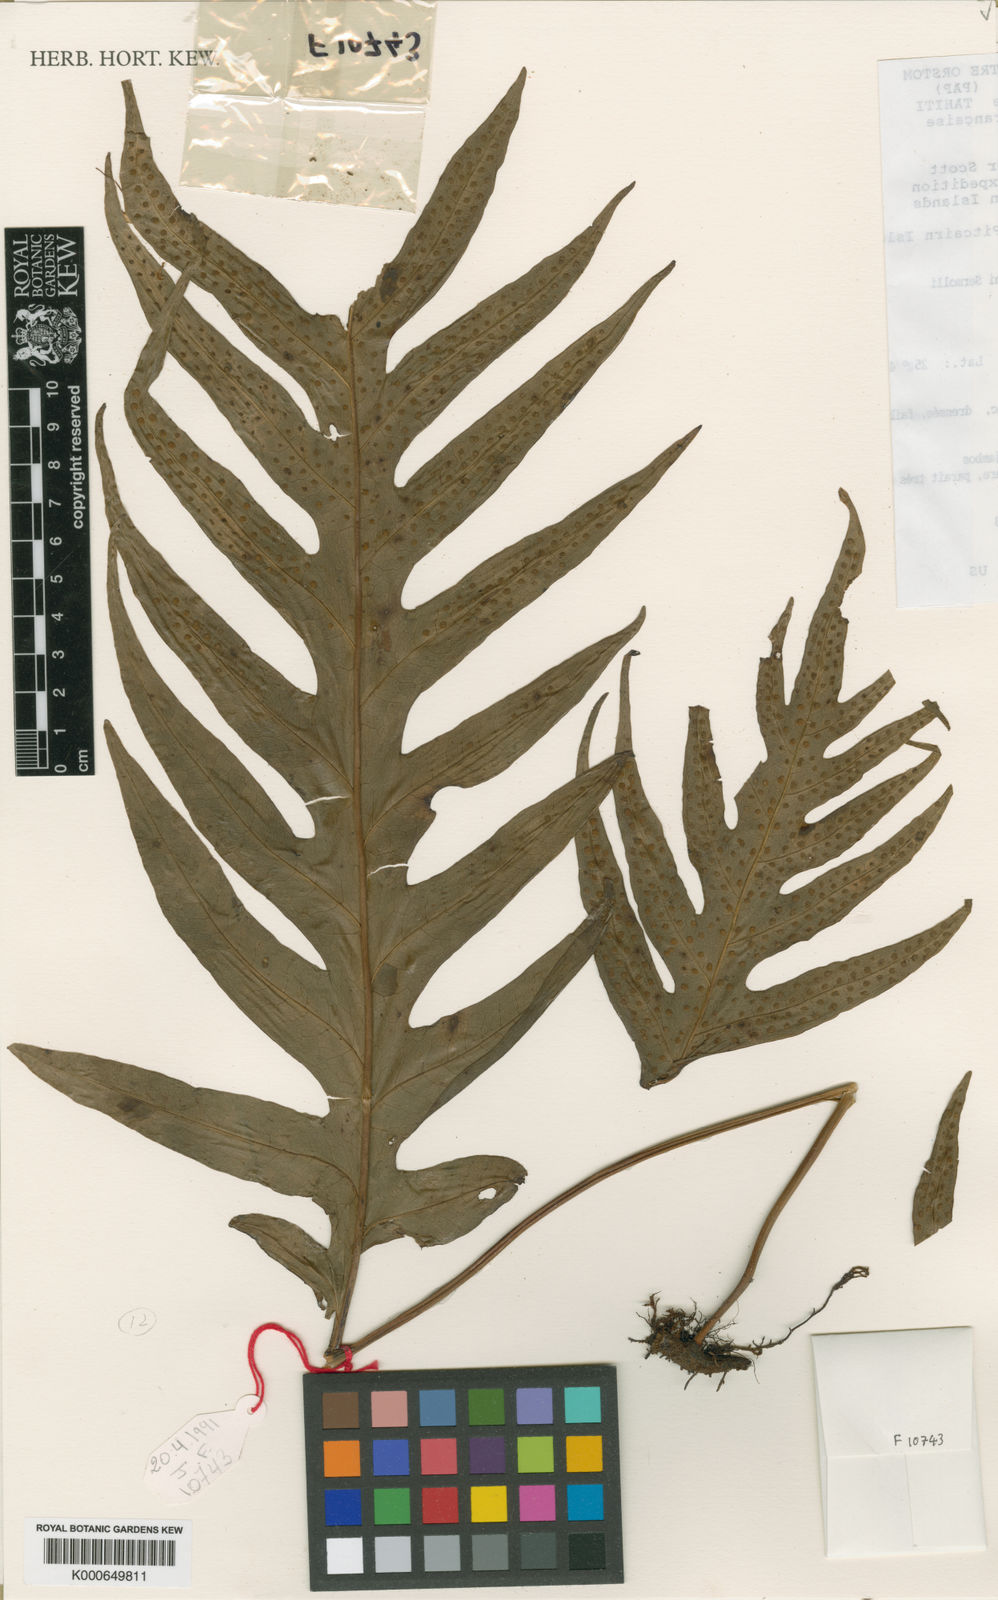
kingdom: Plantae
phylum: Tracheophyta
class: Polypodiopsida
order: Polypodiales
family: Polypodiaceae
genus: Microsorum
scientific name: Microsorum commutatum
